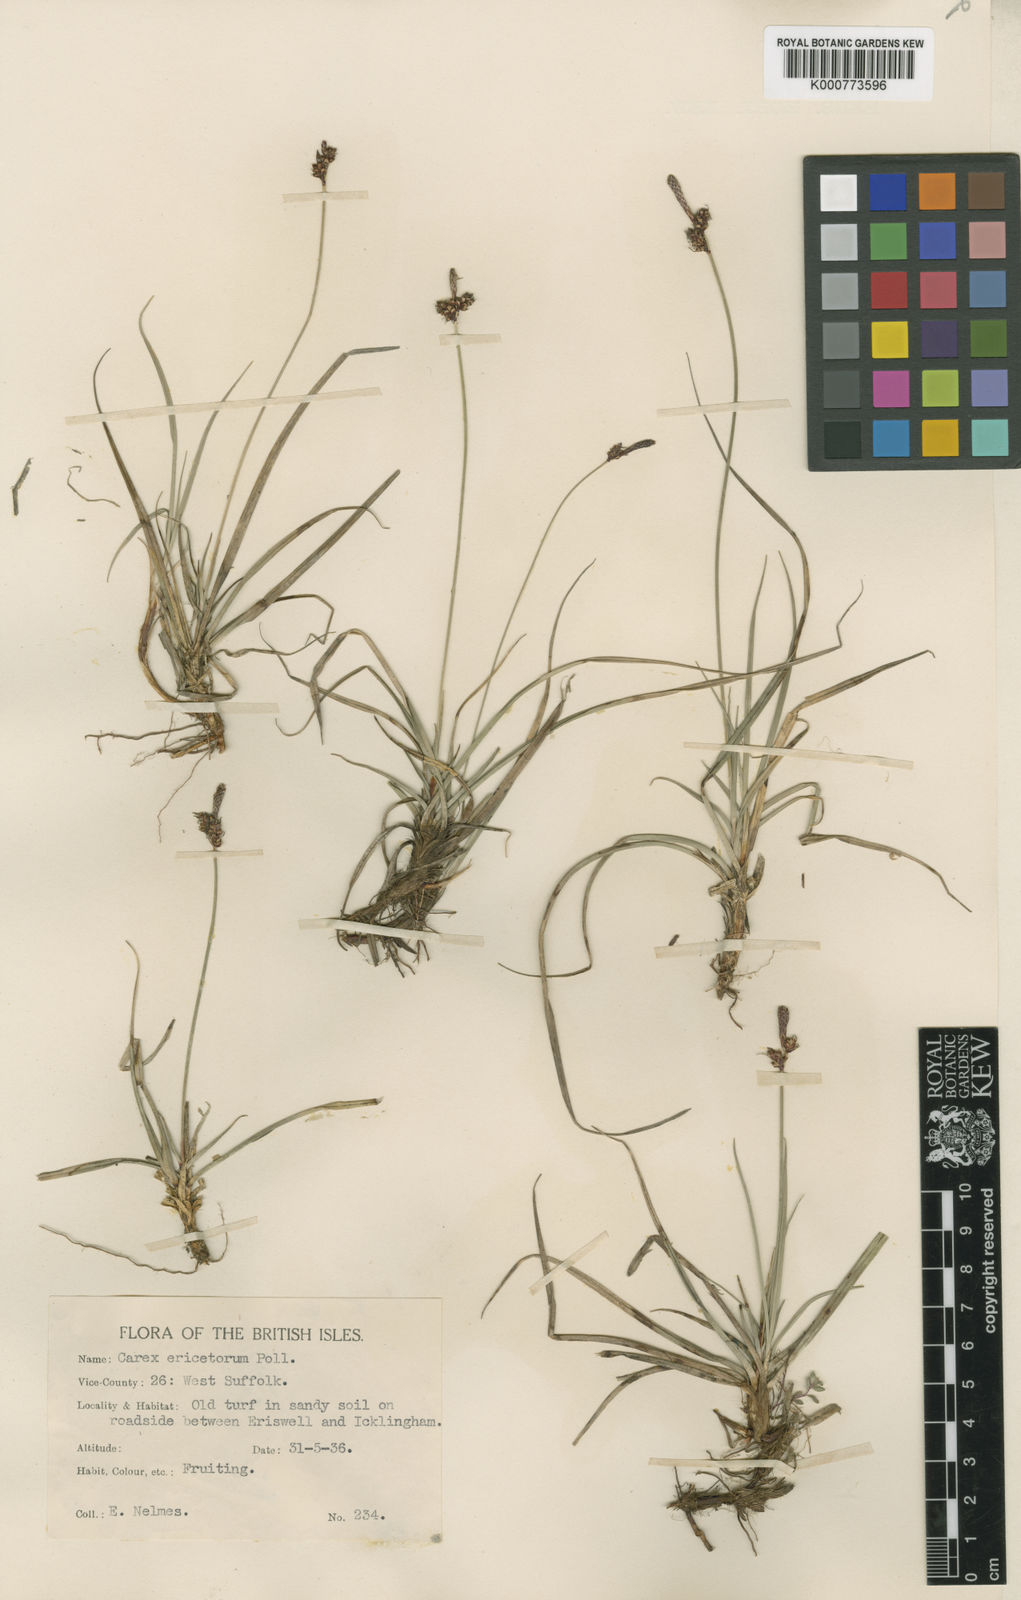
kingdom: Plantae
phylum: Tracheophyta
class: Liliopsida
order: Poales
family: Cyperaceae
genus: Carex
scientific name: Carex ericetorum
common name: Rare spring-sedge
